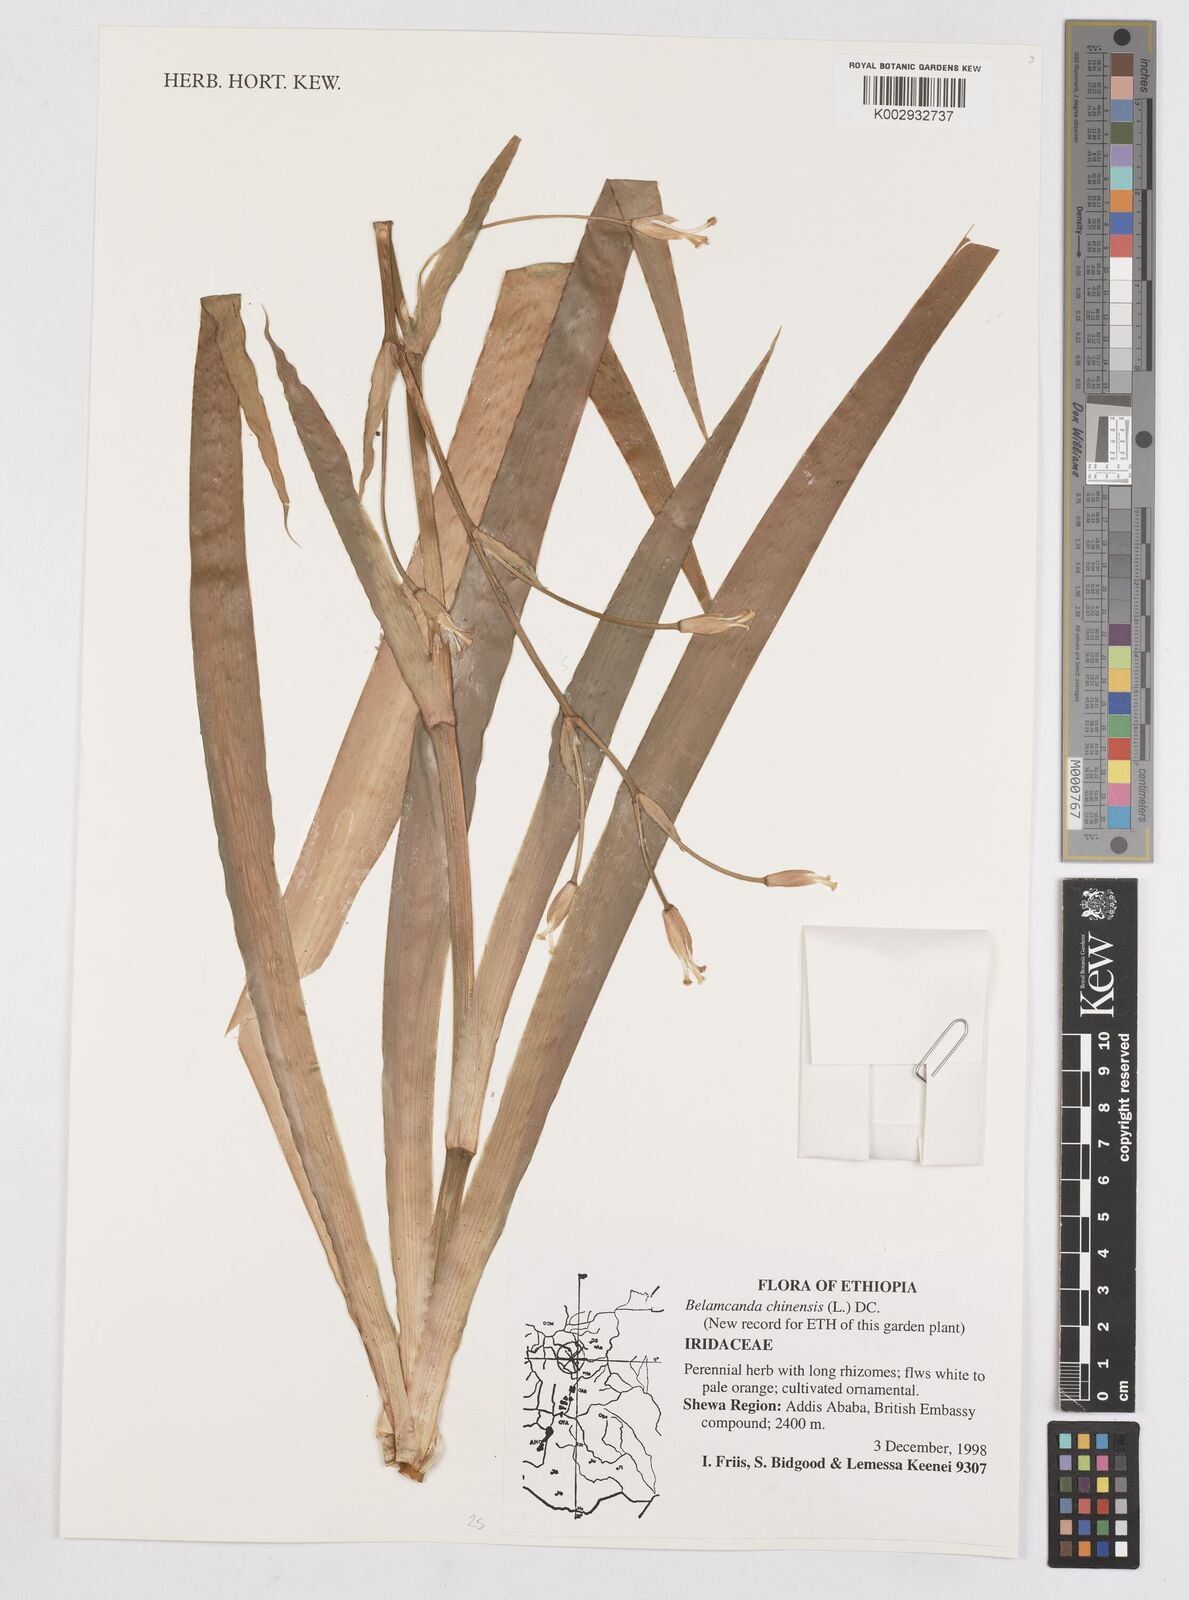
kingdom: Plantae
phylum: Tracheophyta
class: Liliopsida
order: Asparagales
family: Iridaceae
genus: Iris
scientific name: Iris
